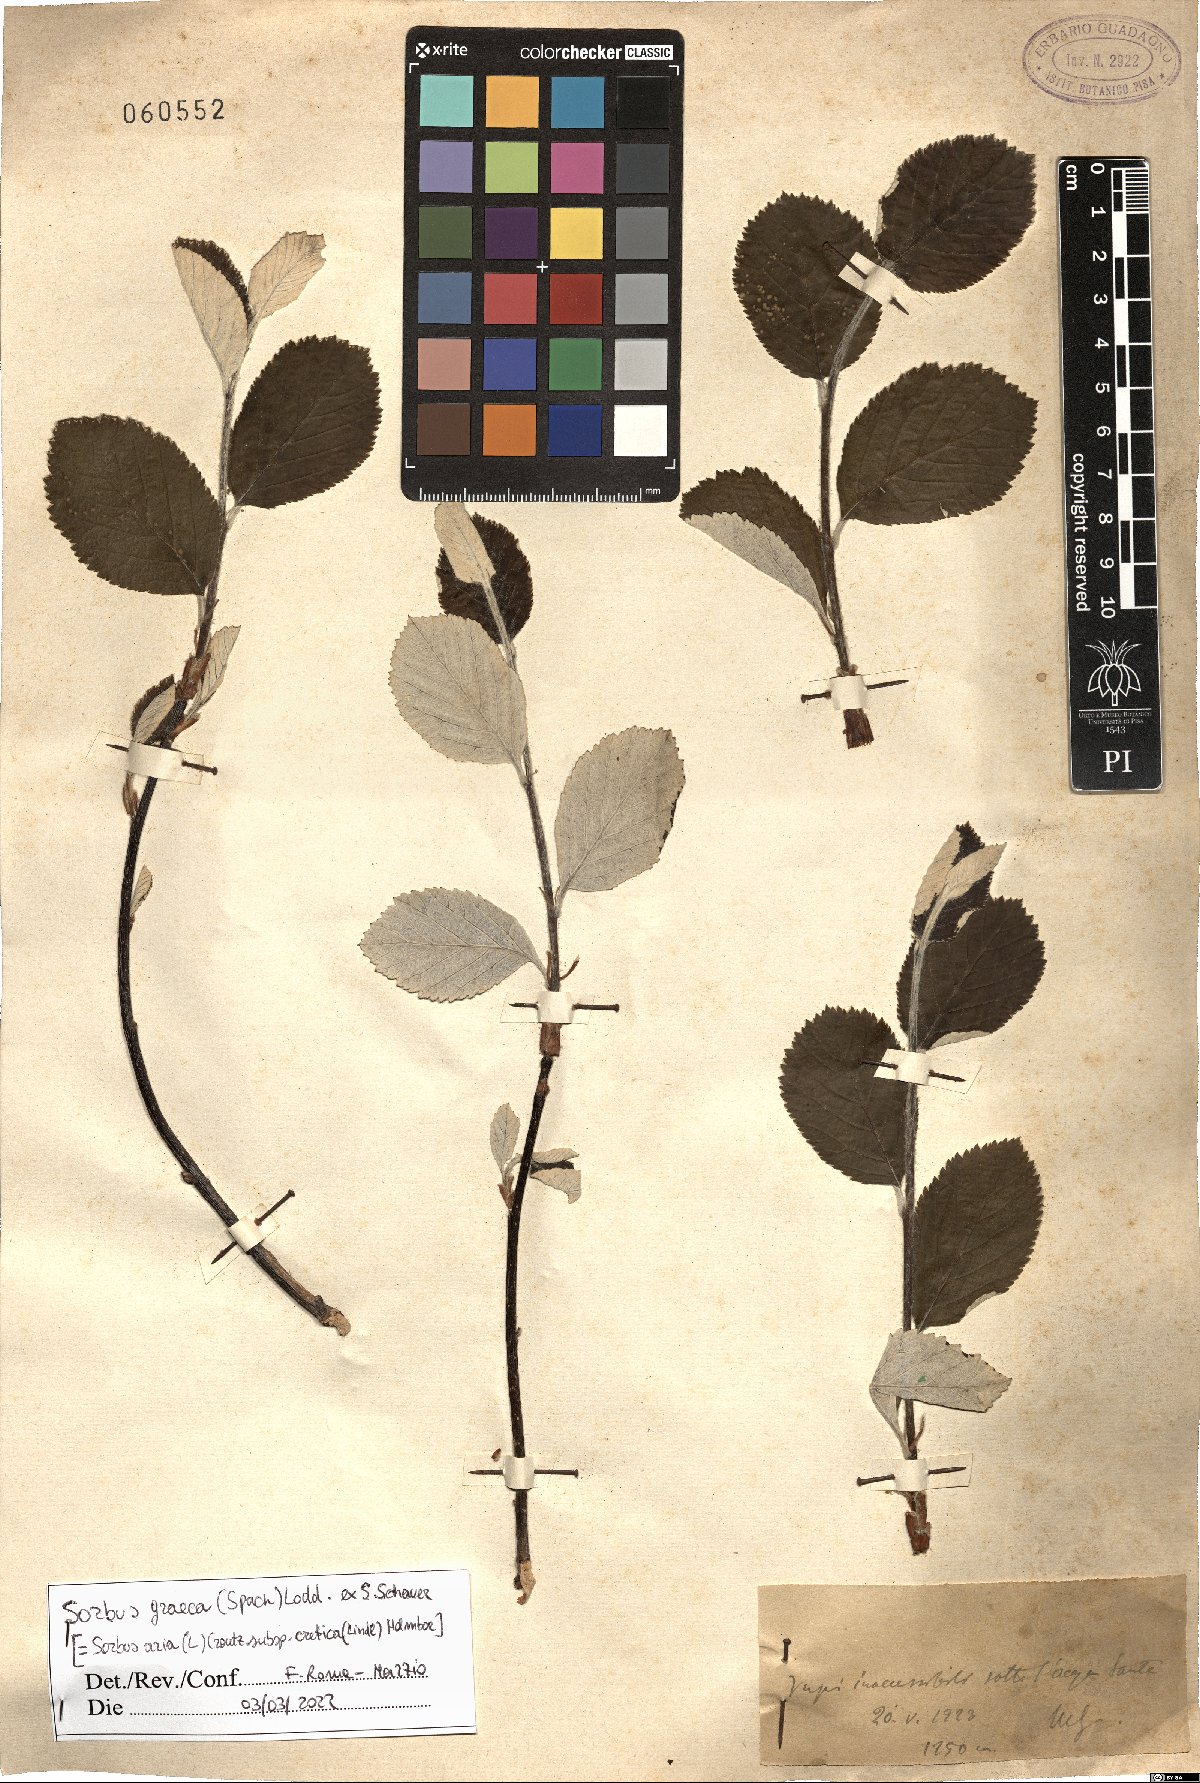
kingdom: Plantae
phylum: Tracheophyta
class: Magnoliopsida
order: Rosales
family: Rosaceae
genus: Aria
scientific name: Aria graeca
